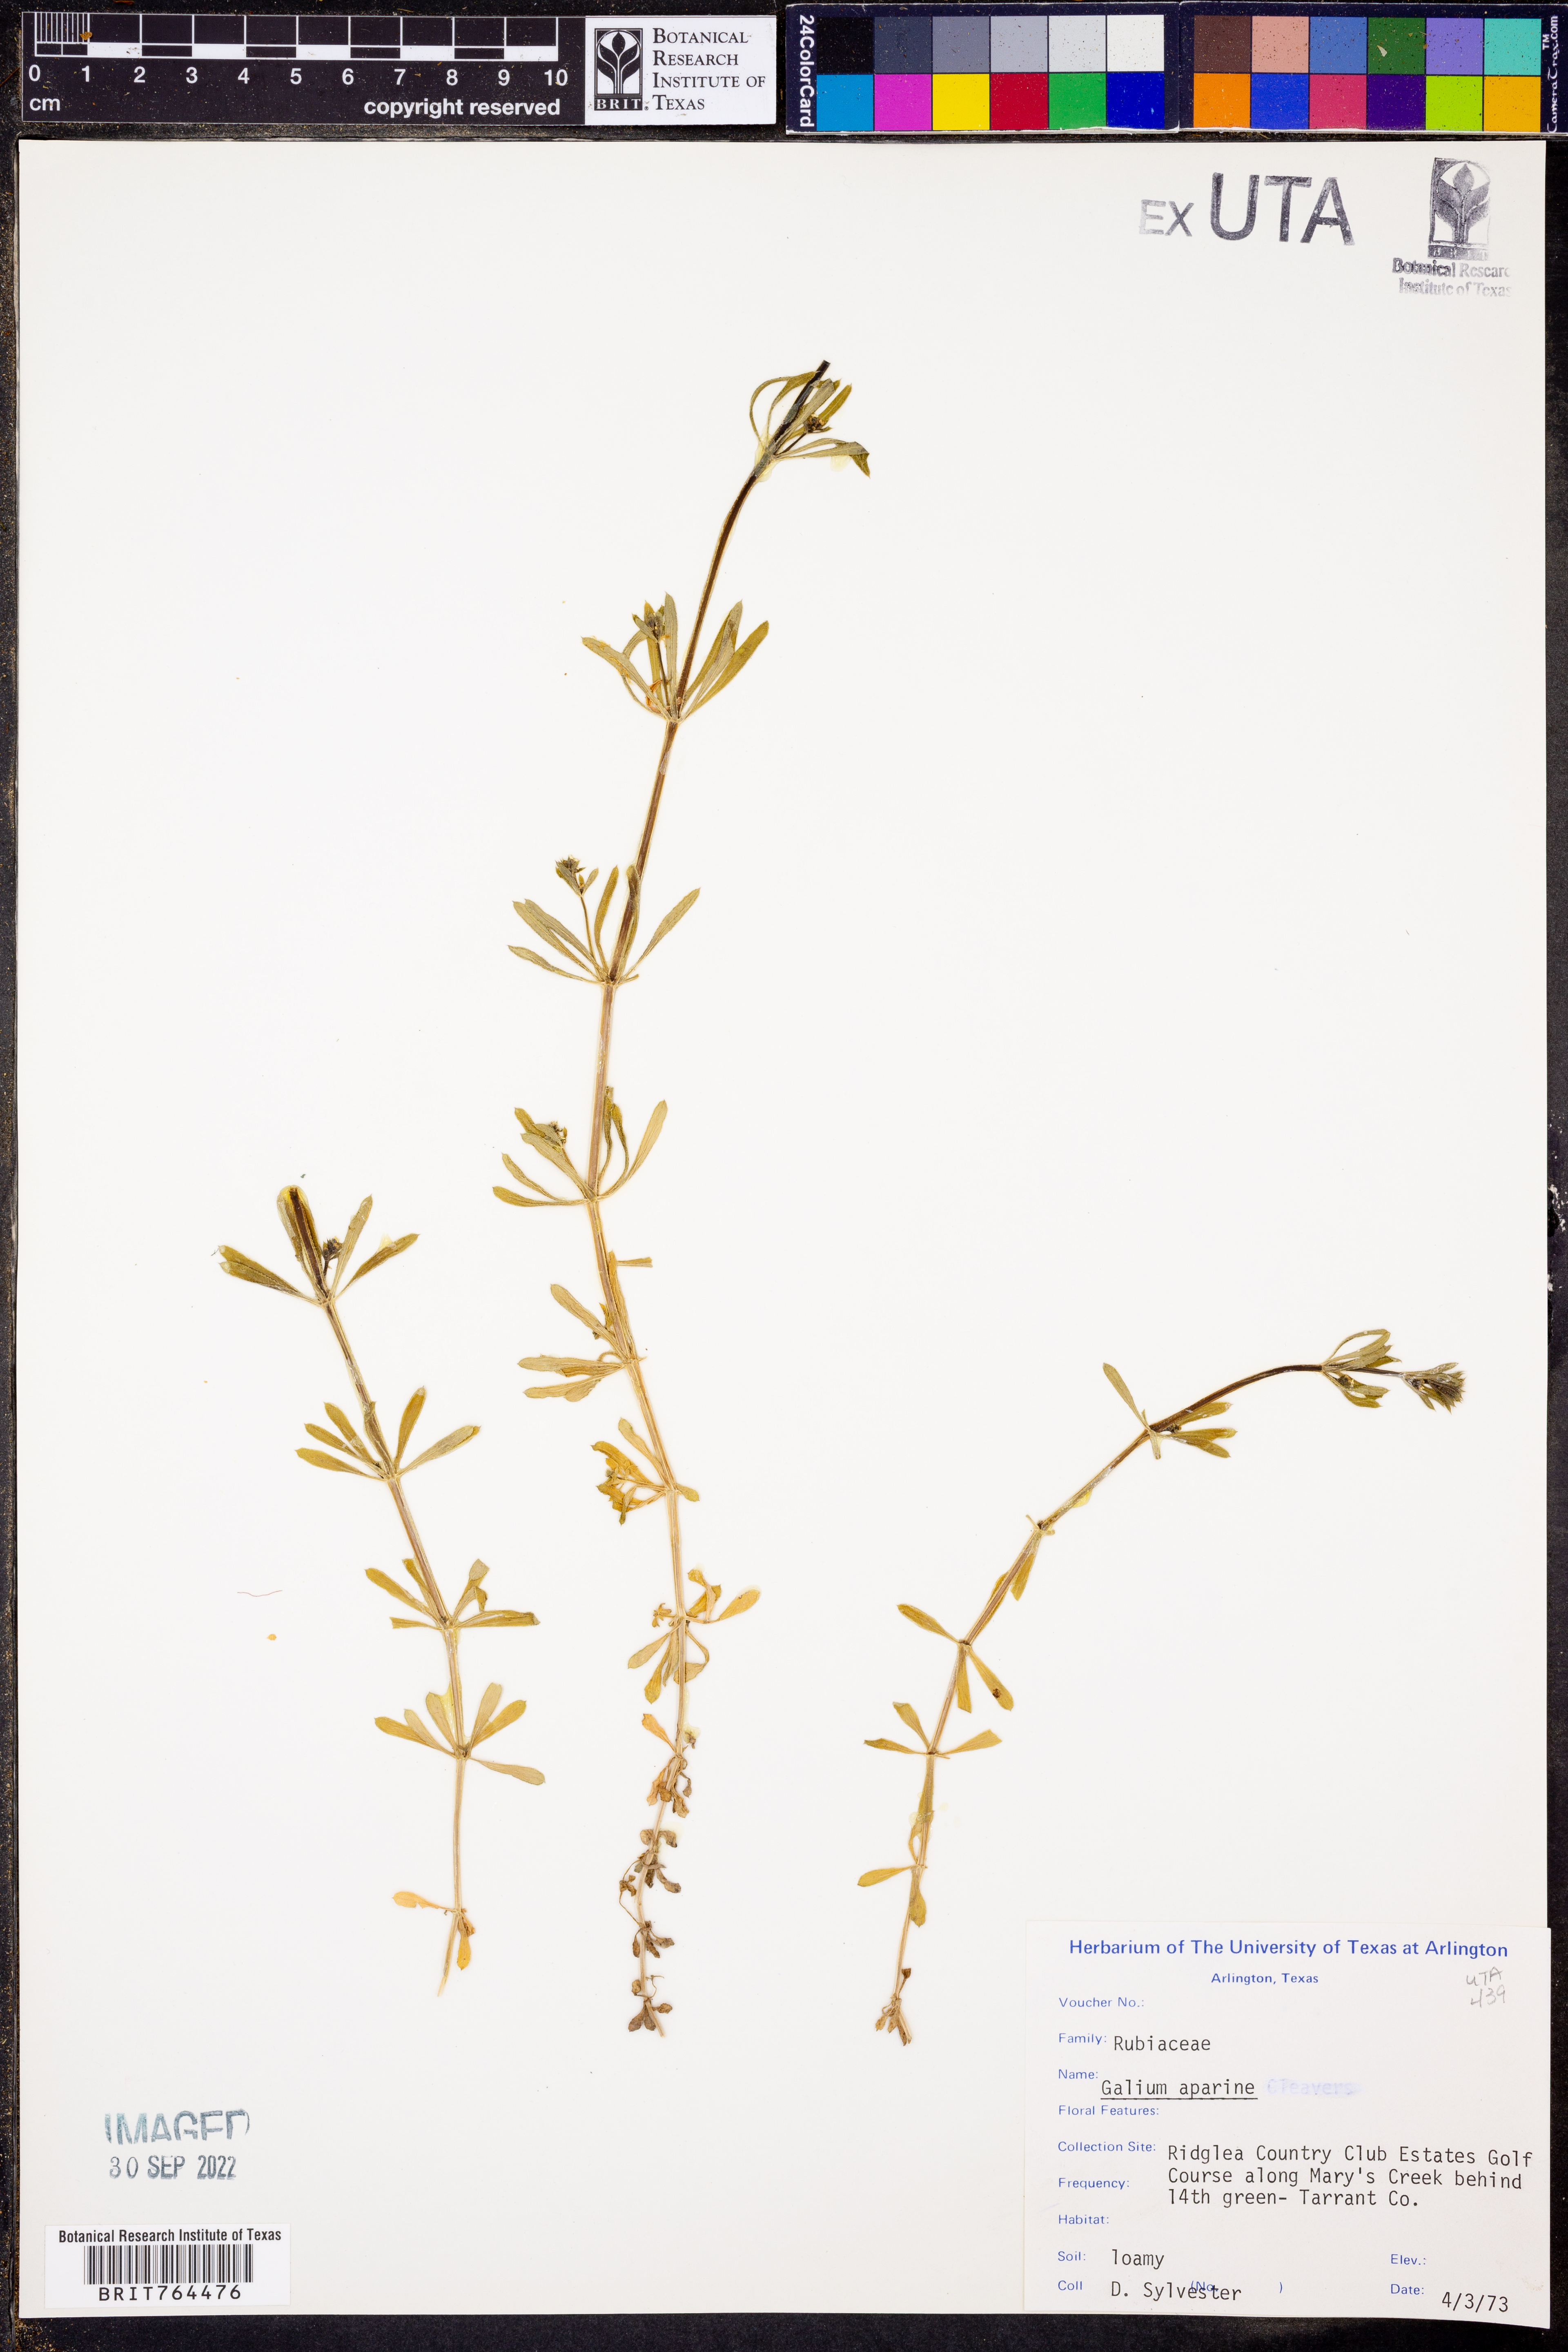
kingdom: Plantae
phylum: Tracheophyta
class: Magnoliopsida
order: Gentianales
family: Rubiaceae
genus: Galium
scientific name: Galium aparine
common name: Cleavers
